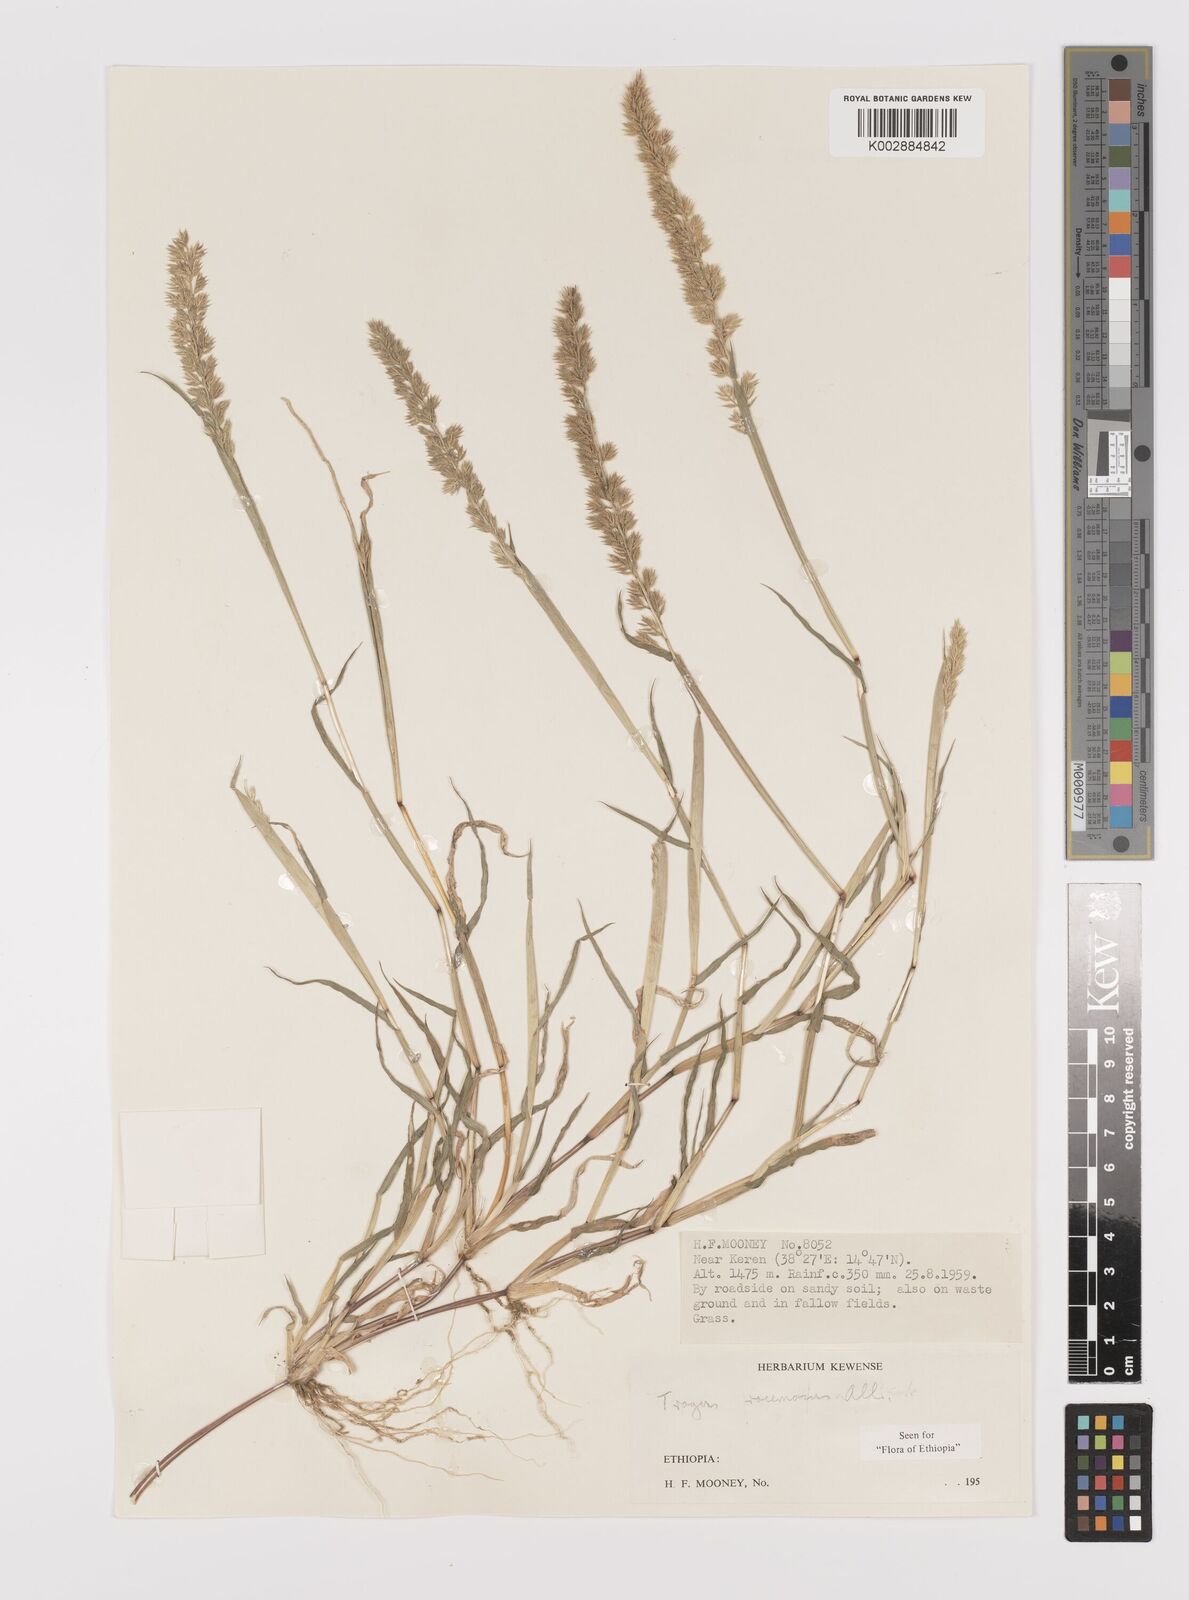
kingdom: Plantae
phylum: Tracheophyta
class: Liliopsida
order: Poales
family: Poaceae
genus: Tragus
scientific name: Tragus racemosus
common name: European bur-grass
